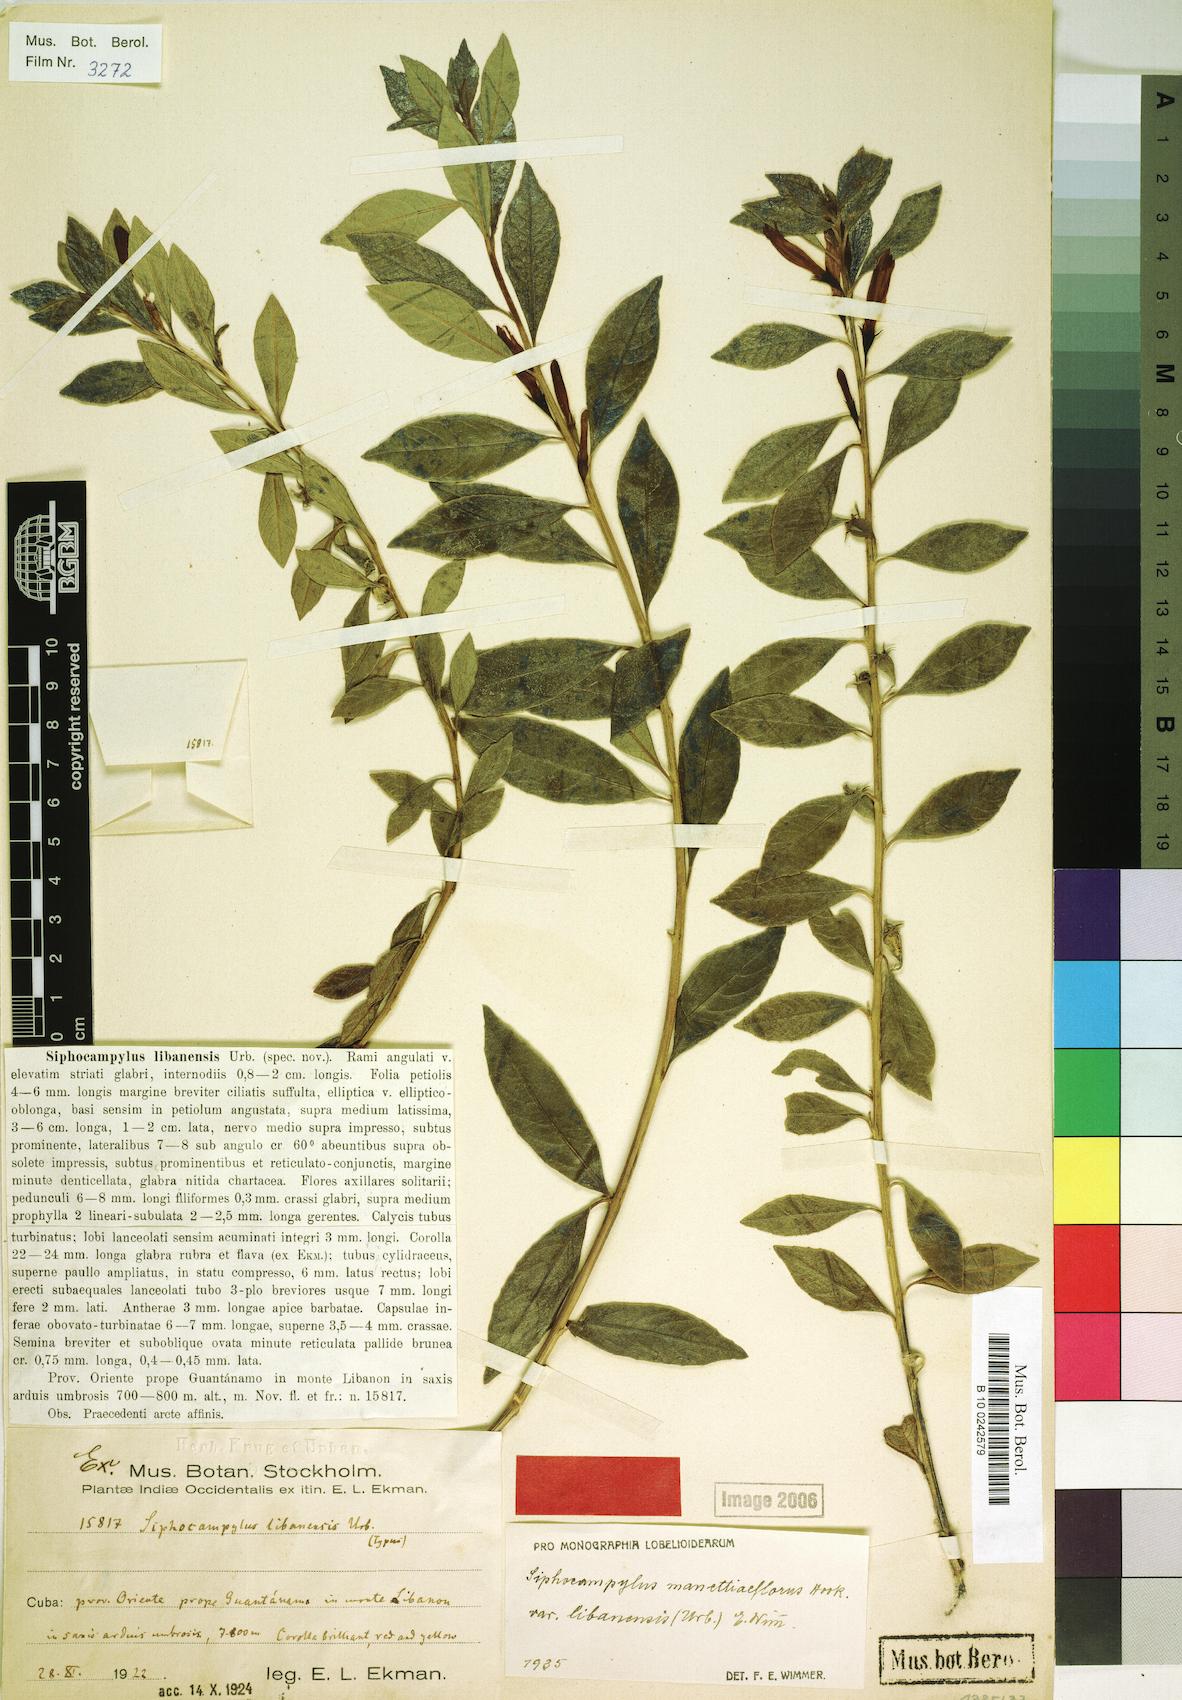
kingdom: Plantae
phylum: Tracheophyta
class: Magnoliopsida
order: Asterales
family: Campanulaceae
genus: Siphocampylus
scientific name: Siphocampylus manettiiflorus
